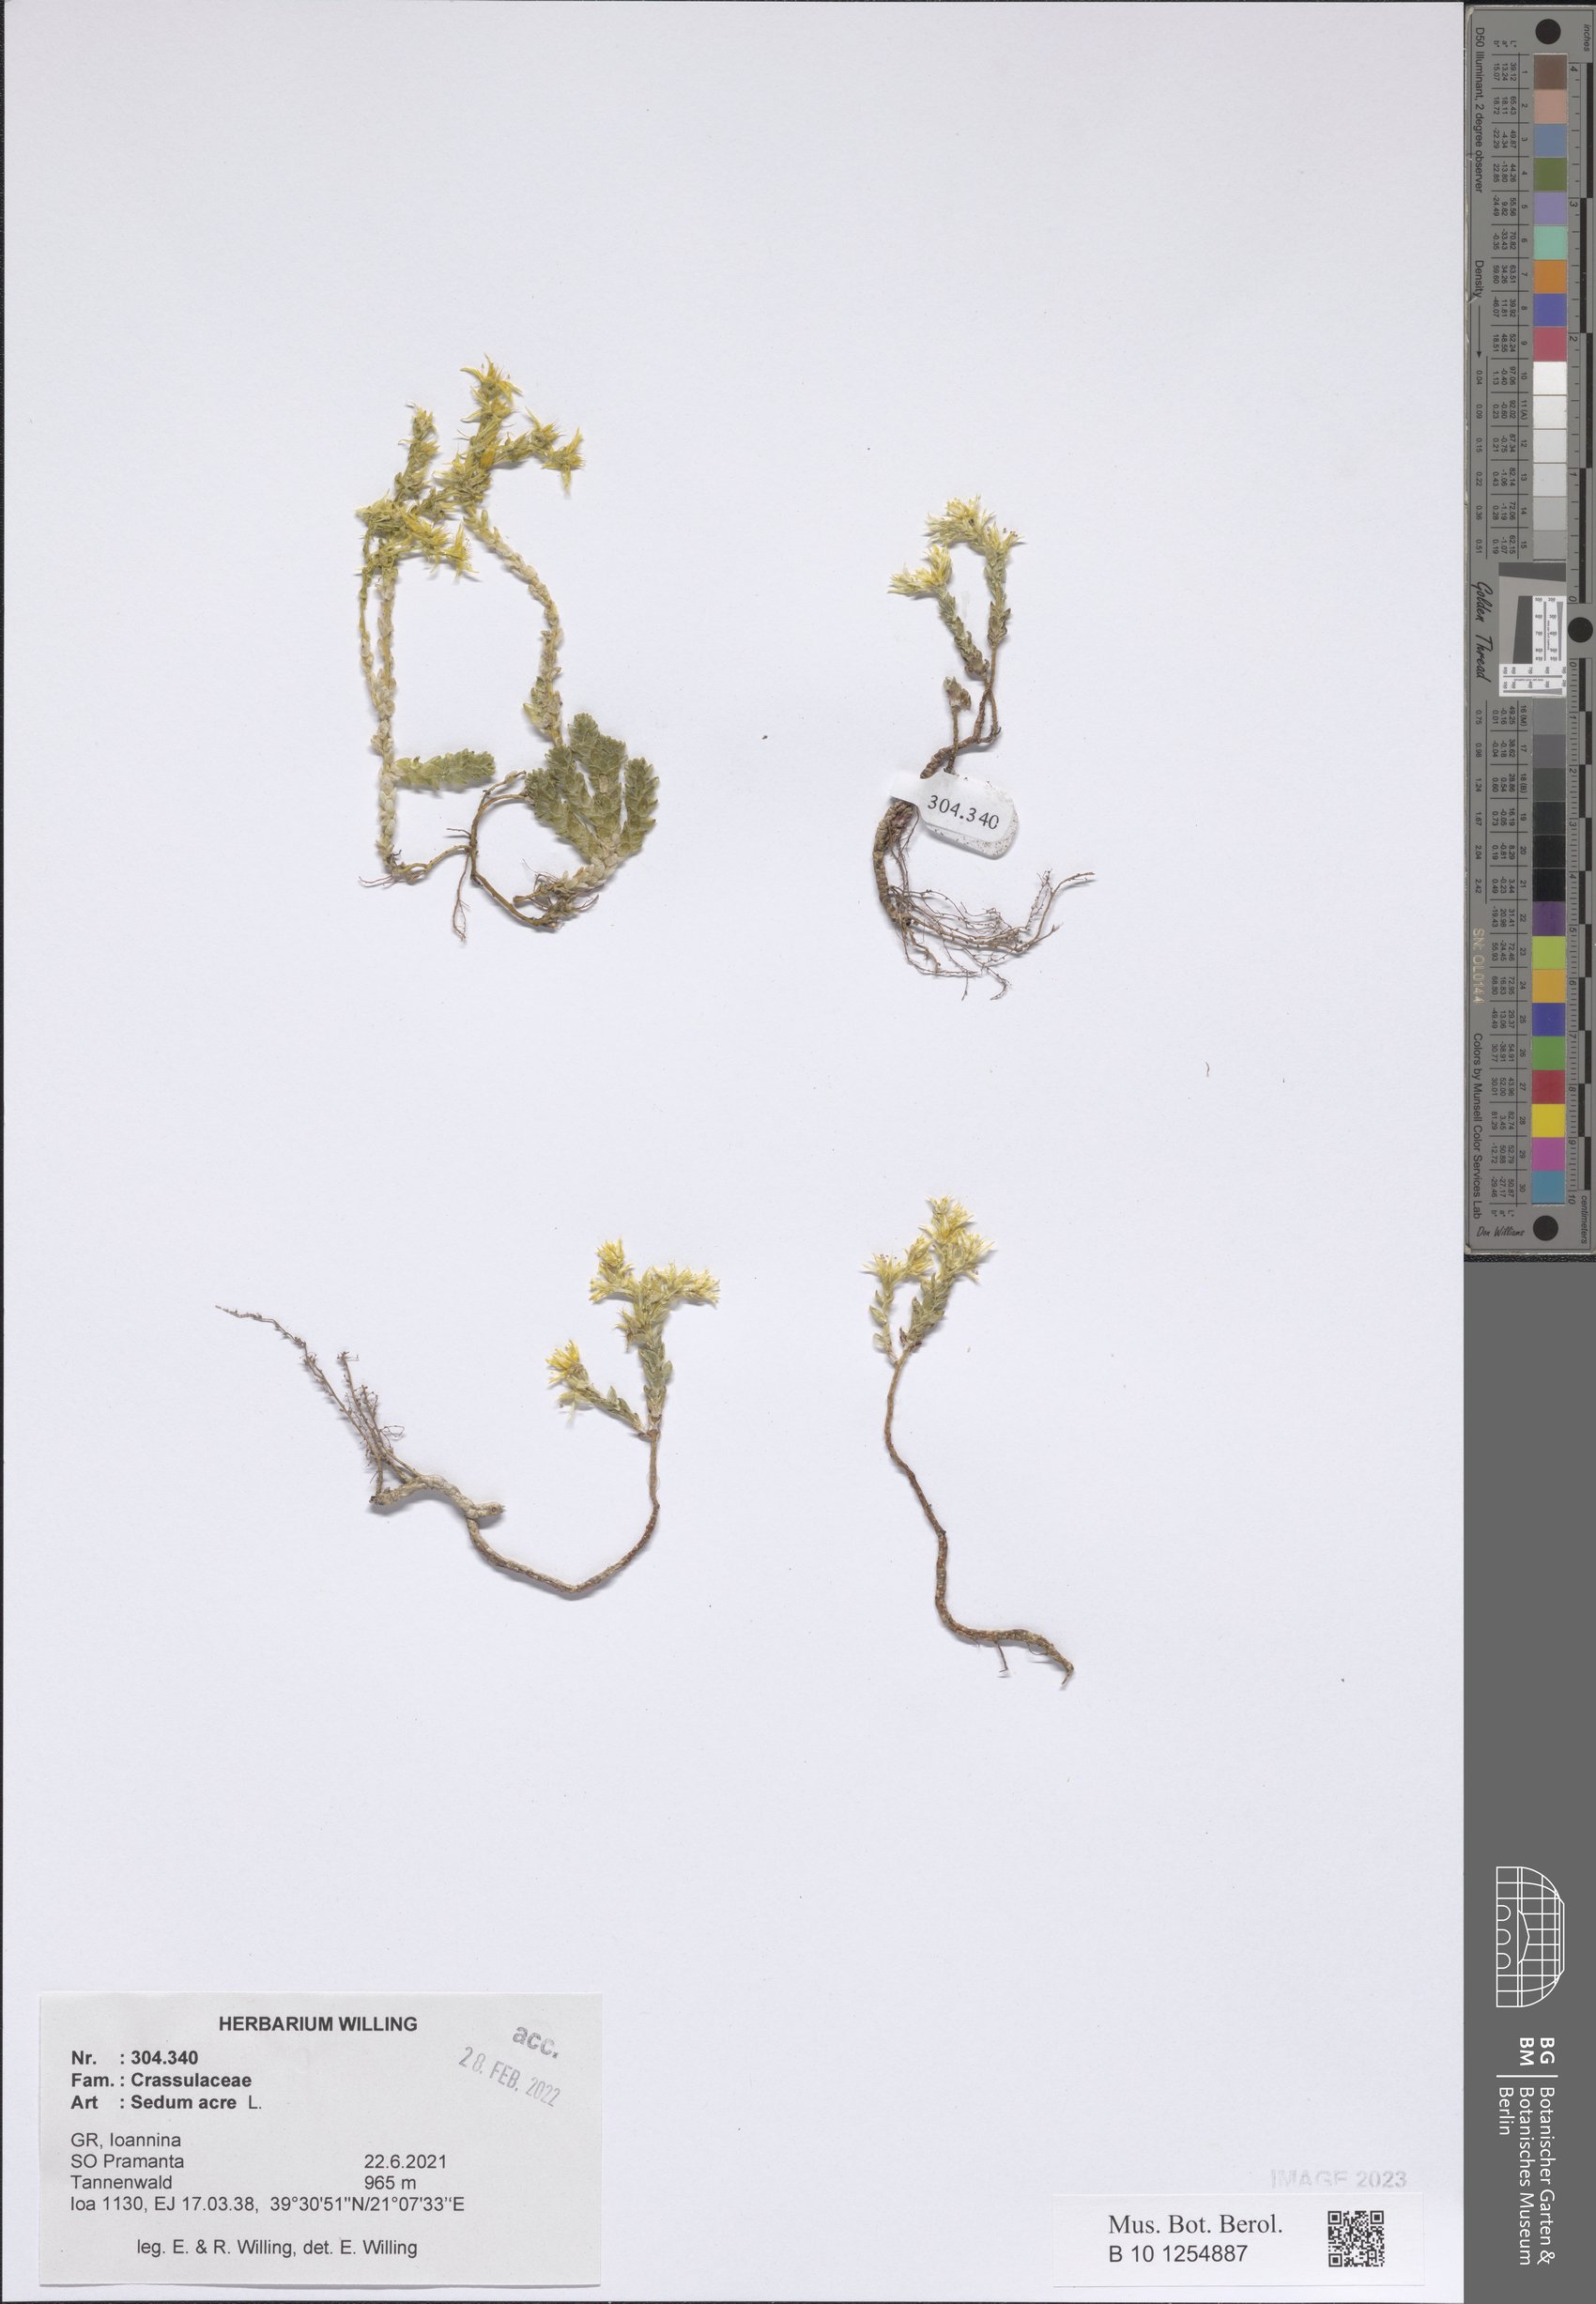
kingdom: Plantae
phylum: Tracheophyta
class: Magnoliopsida
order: Saxifragales
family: Crassulaceae
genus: Sedum
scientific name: Sedum acre
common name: Biting stonecrop
